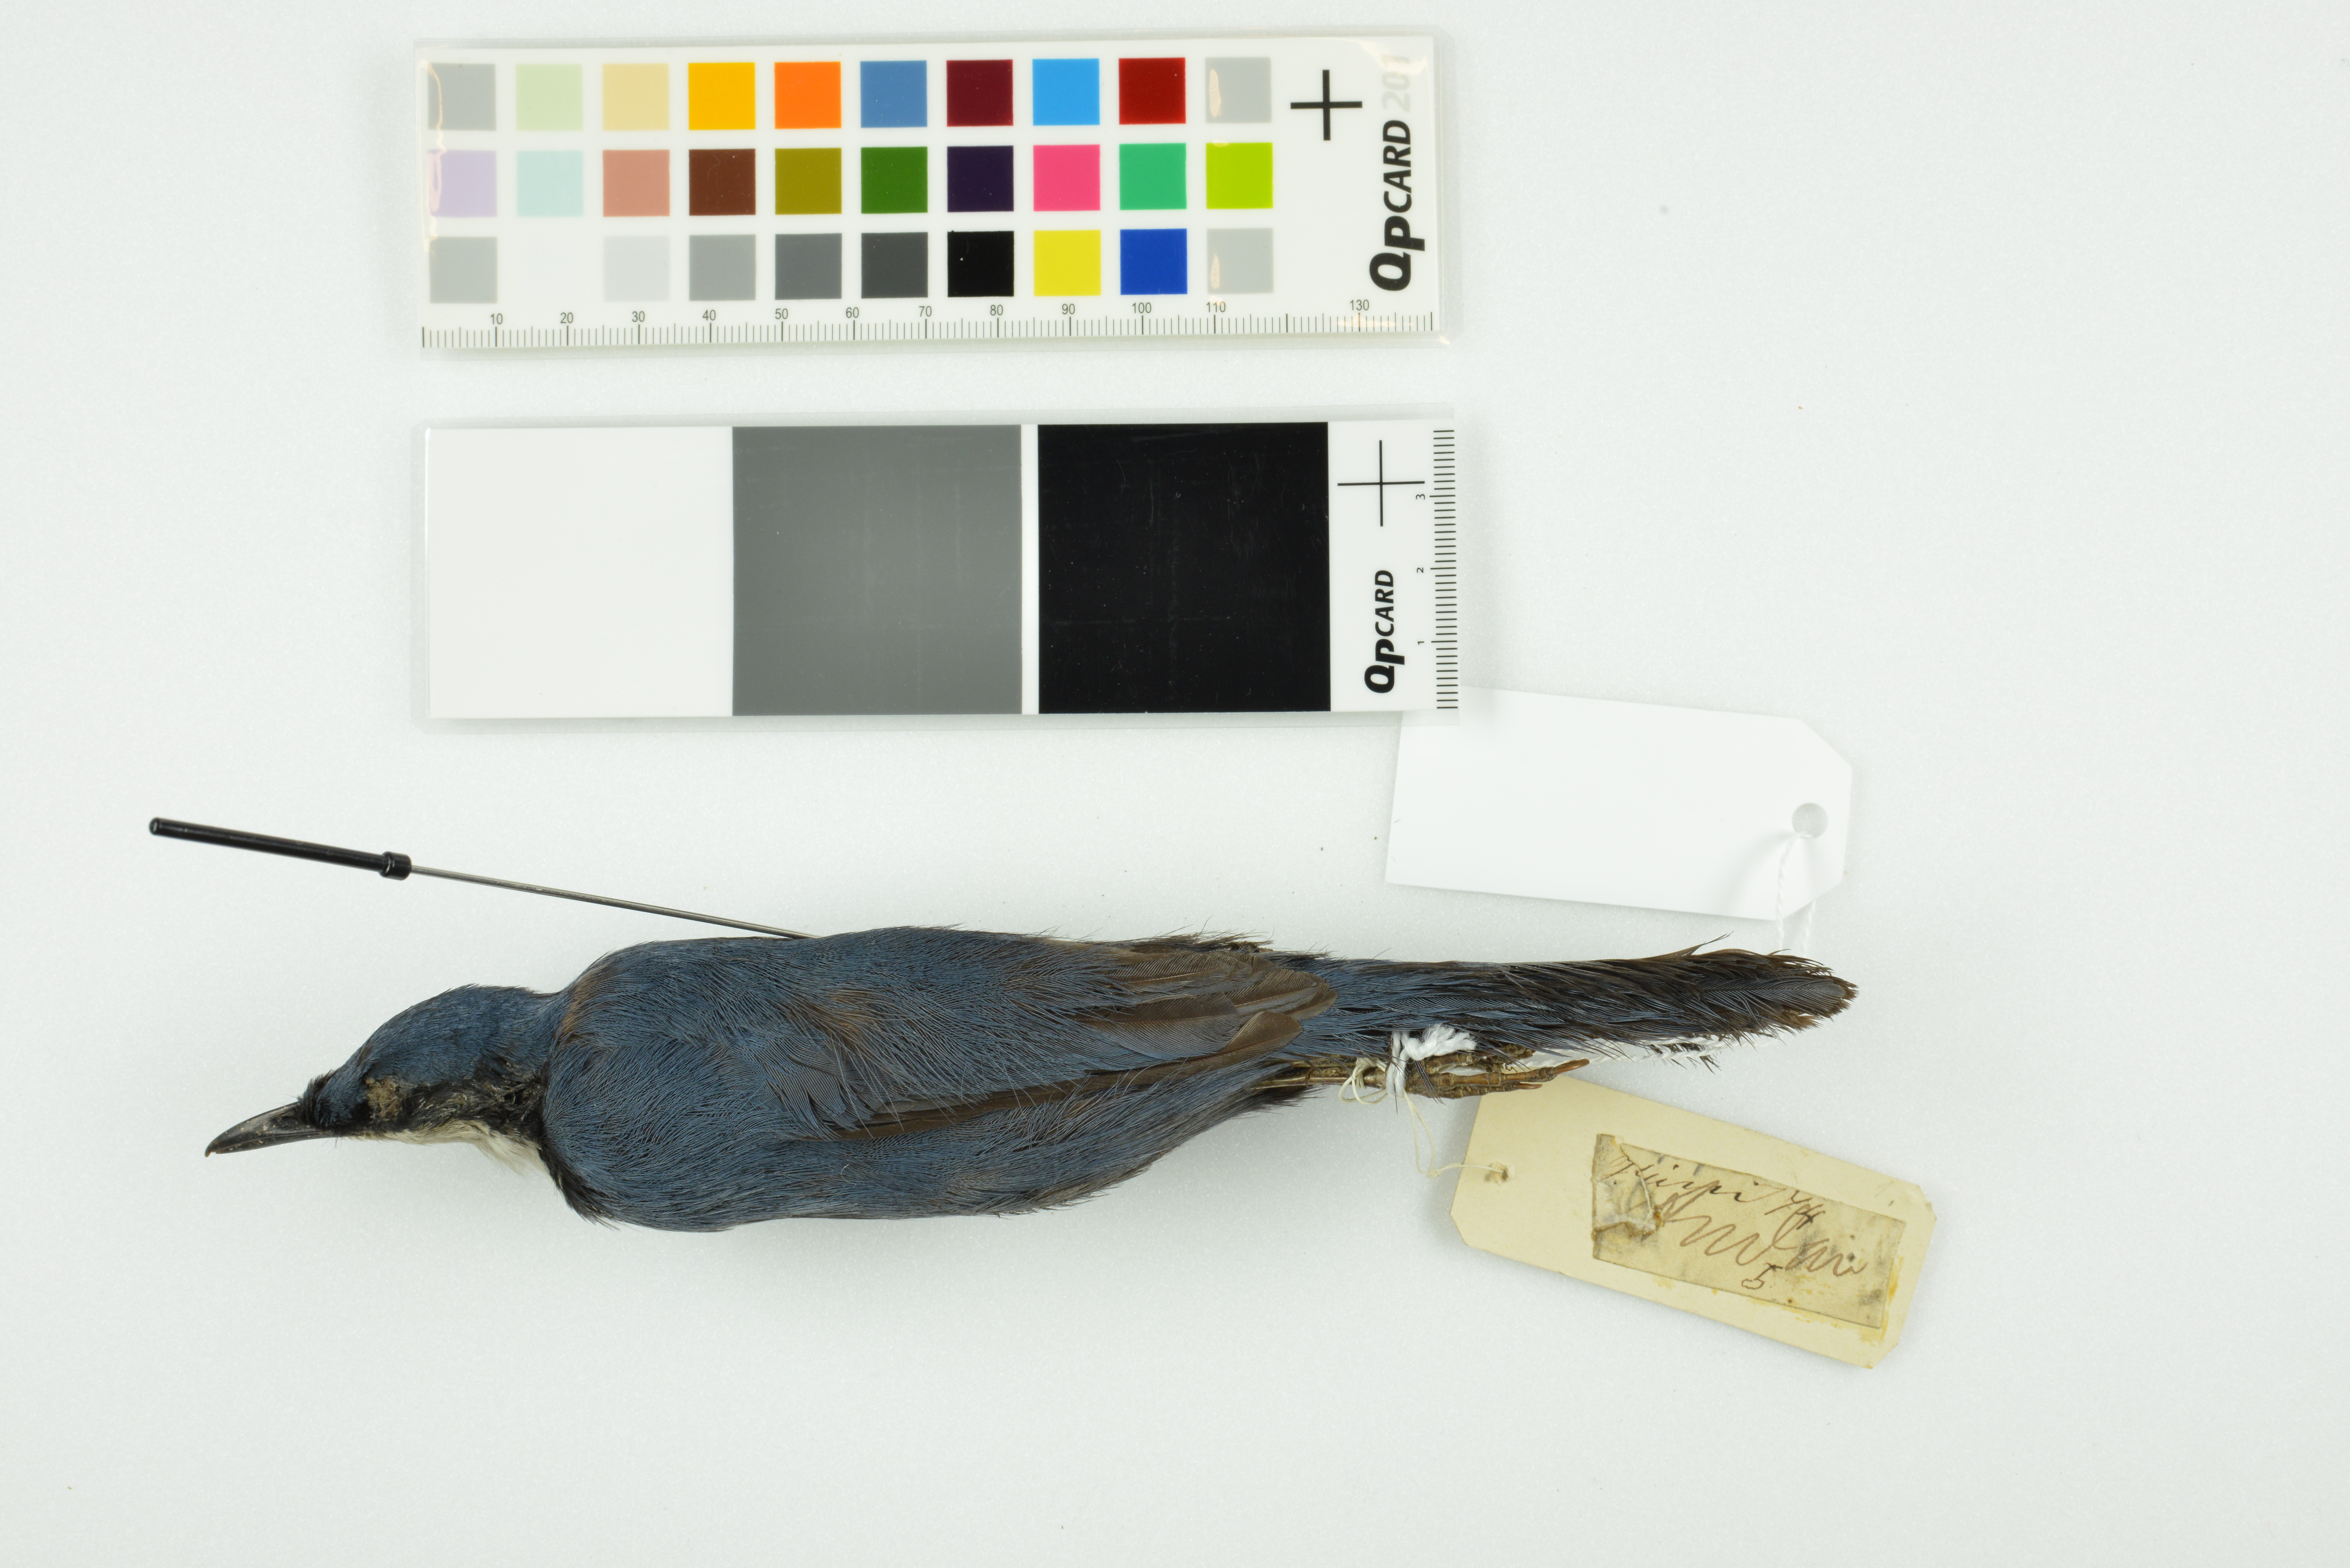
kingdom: Animalia
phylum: Chordata
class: Aves
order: Passeriformes
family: Psophodidae
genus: Ptilorrhoa
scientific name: Ptilorrhoa caerulescens
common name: Blue jewel-babbler
